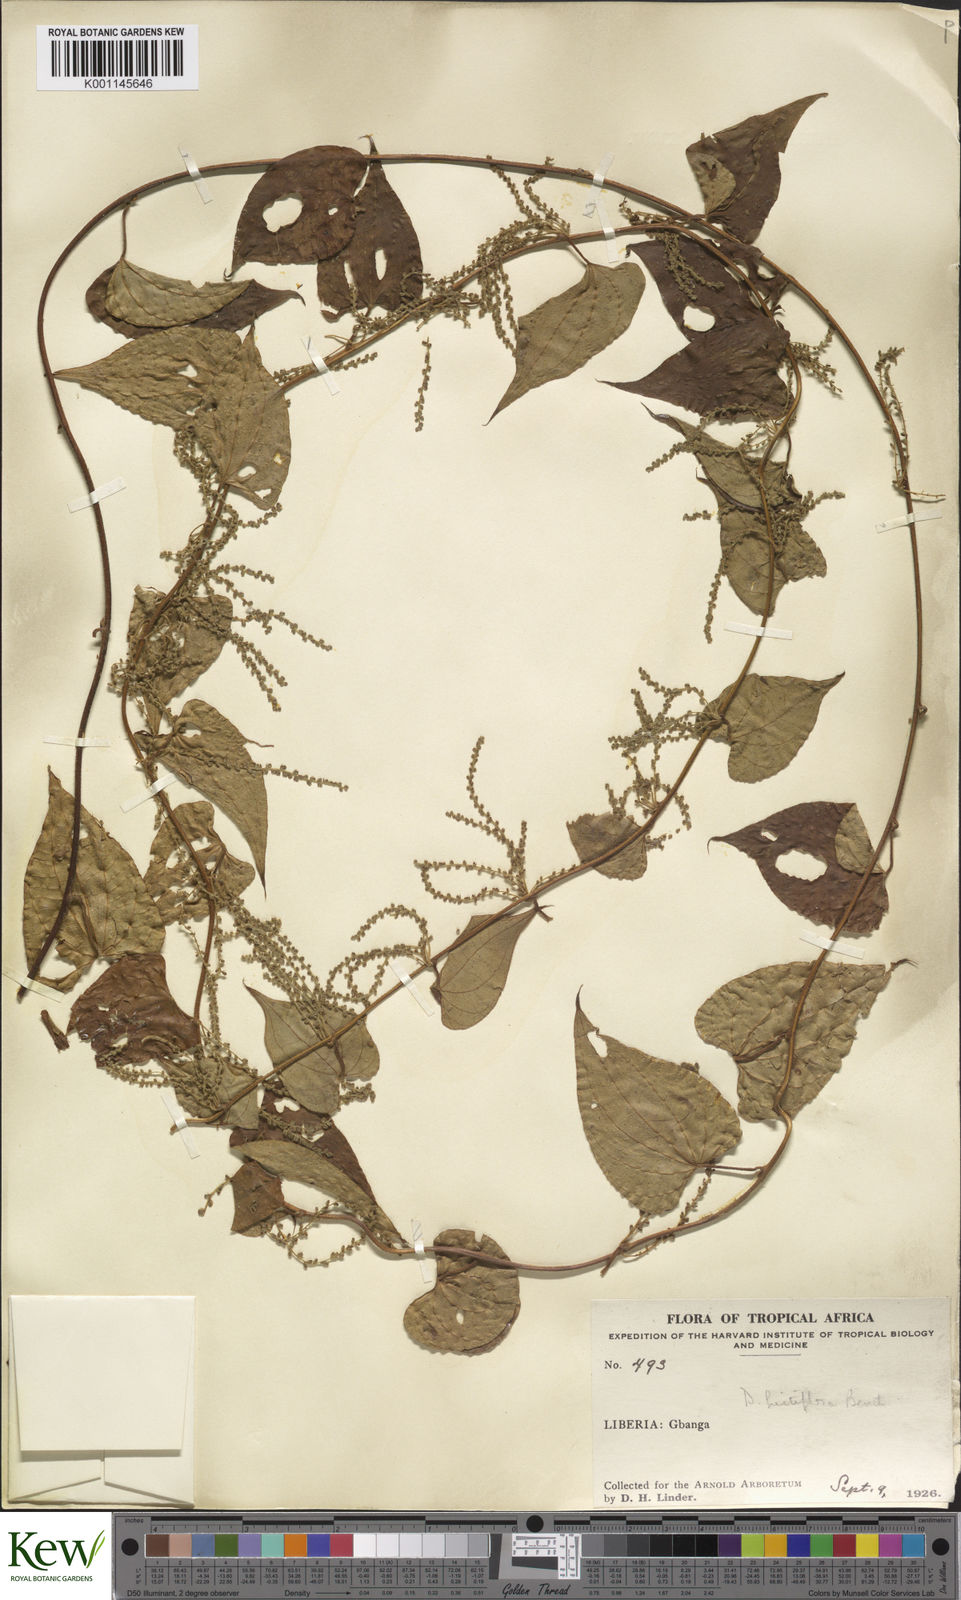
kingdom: Plantae
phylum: Tracheophyta
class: Liliopsida
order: Dioscoreales
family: Dioscoreaceae
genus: Dioscorea
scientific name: Dioscorea hirtiflora
